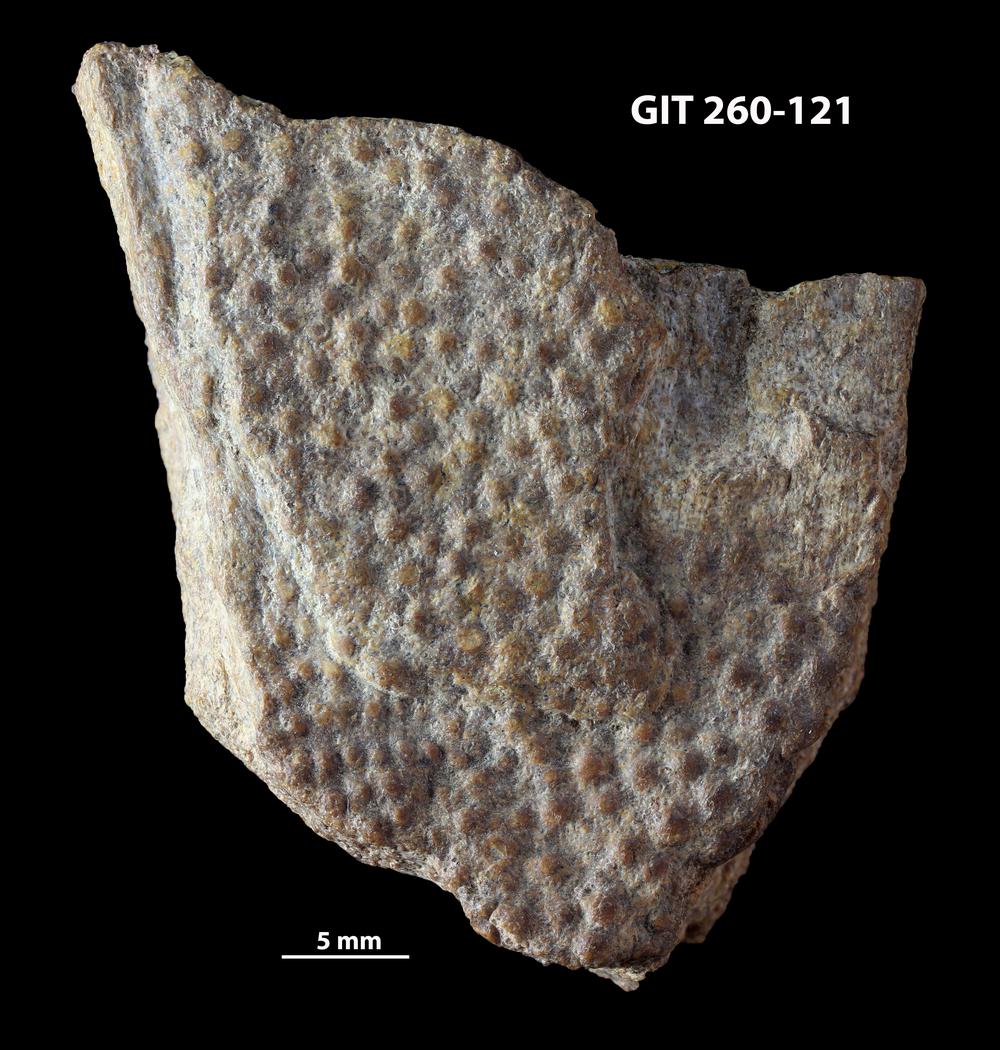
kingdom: Animalia
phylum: Chordata
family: Homostiidae
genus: Homostius
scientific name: Homostius
